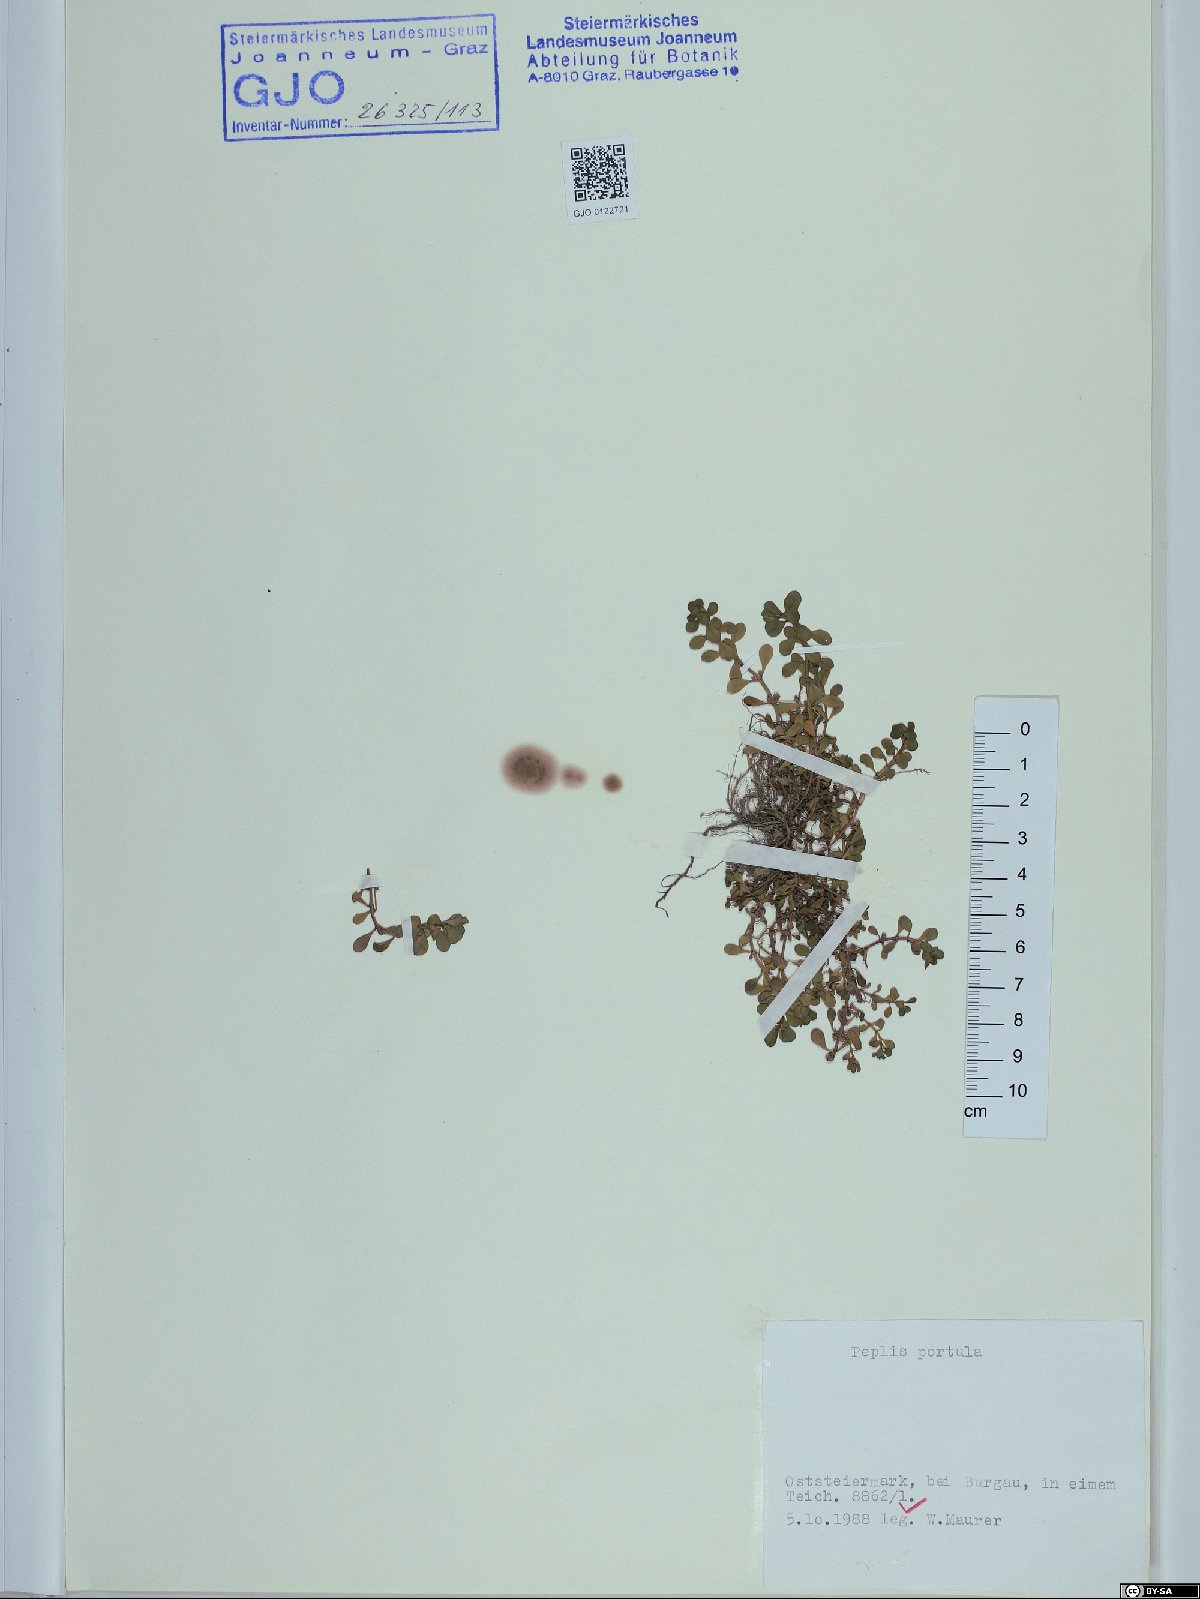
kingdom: Plantae
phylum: Tracheophyta
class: Magnoliopsida
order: Myrtales
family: Lythraceae
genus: Lythrum
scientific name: Lythrum portula
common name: Water purslane
